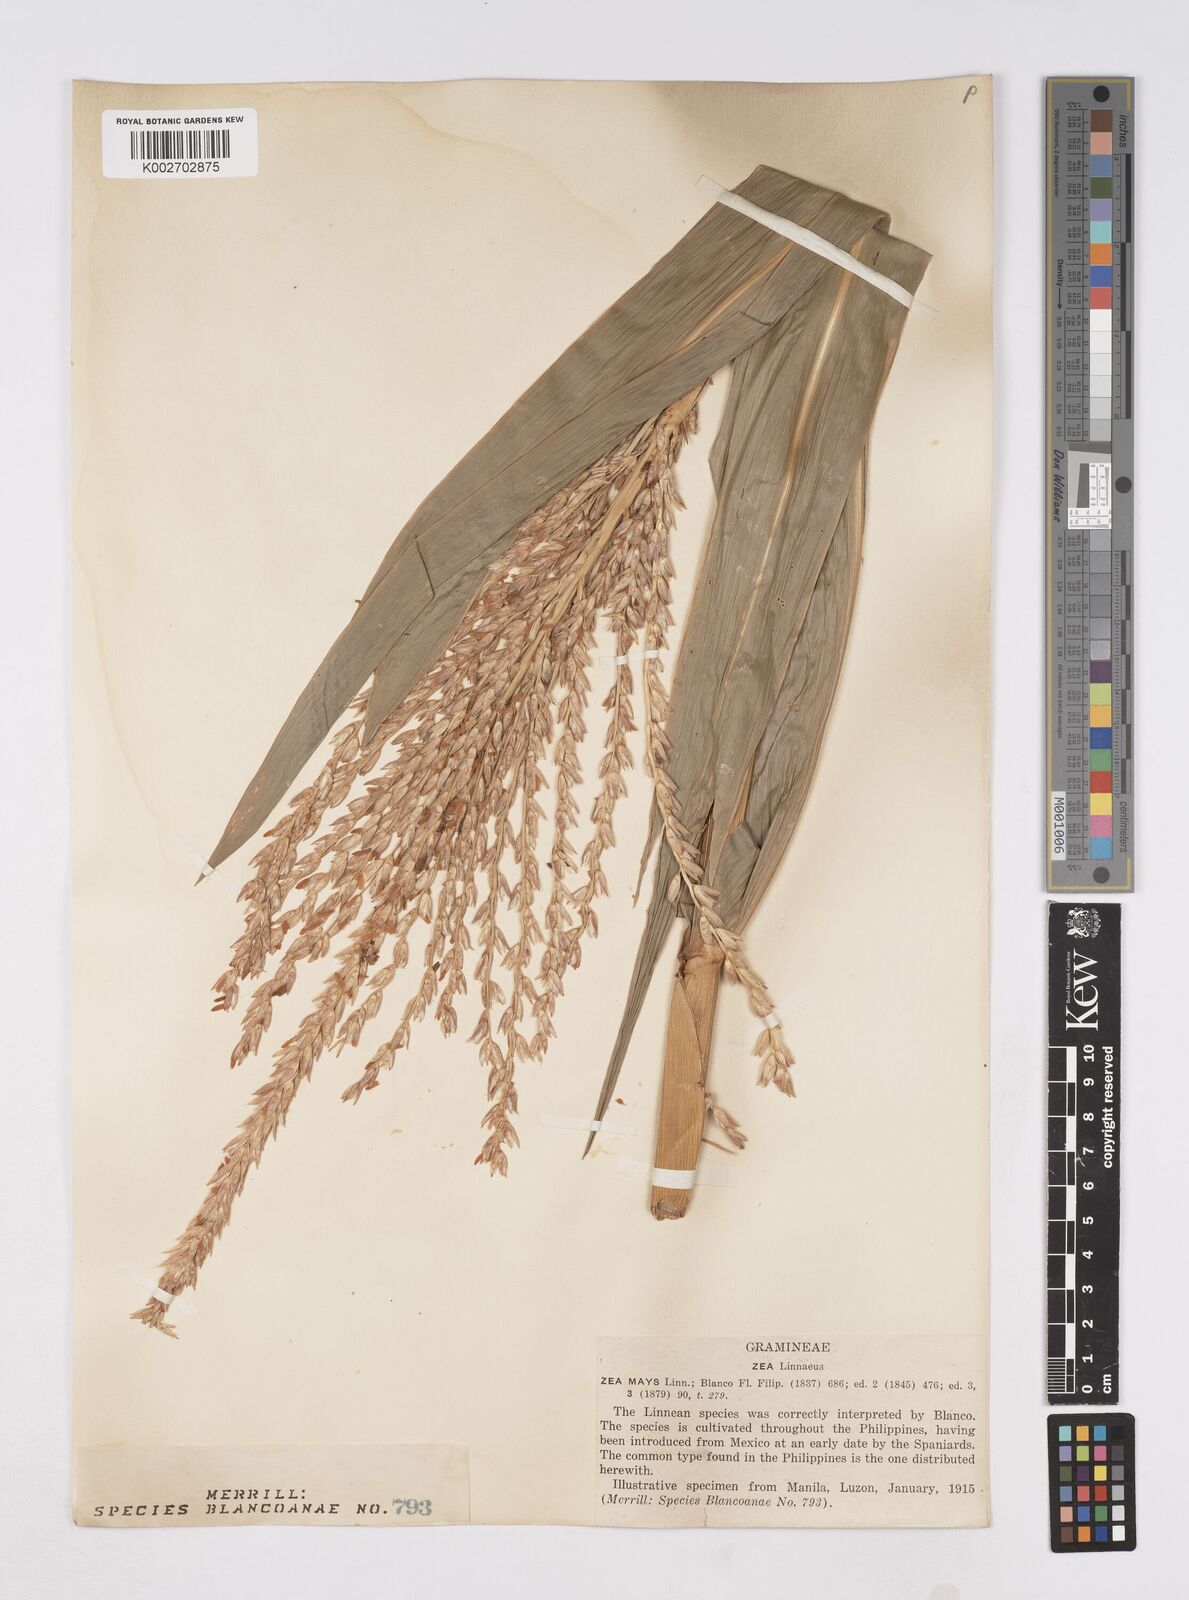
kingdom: Plantae
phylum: Tracheophyta
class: Liliopsida
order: Poales
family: Poaceae
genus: Zea
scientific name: Zea mays
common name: Maize
